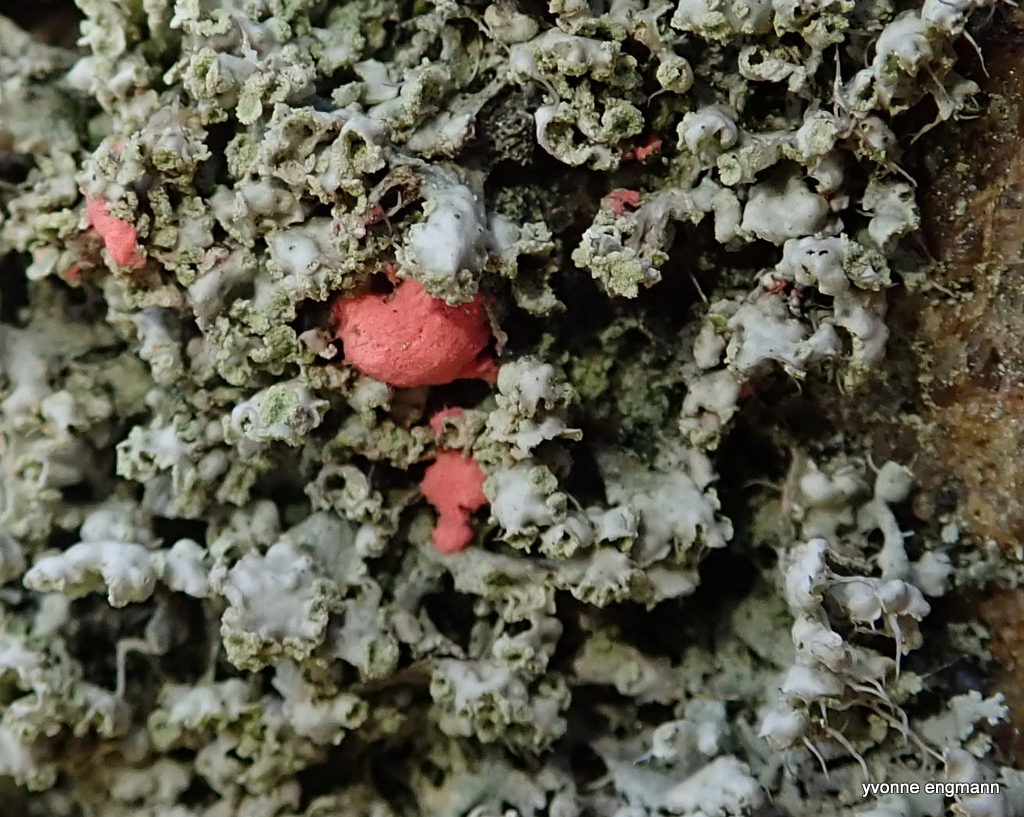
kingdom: Fungi
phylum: Ascomycota
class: Sordariomycetes
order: Hypocreales
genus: Illosporiopsis
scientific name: Illosporiopsis christiansenii
